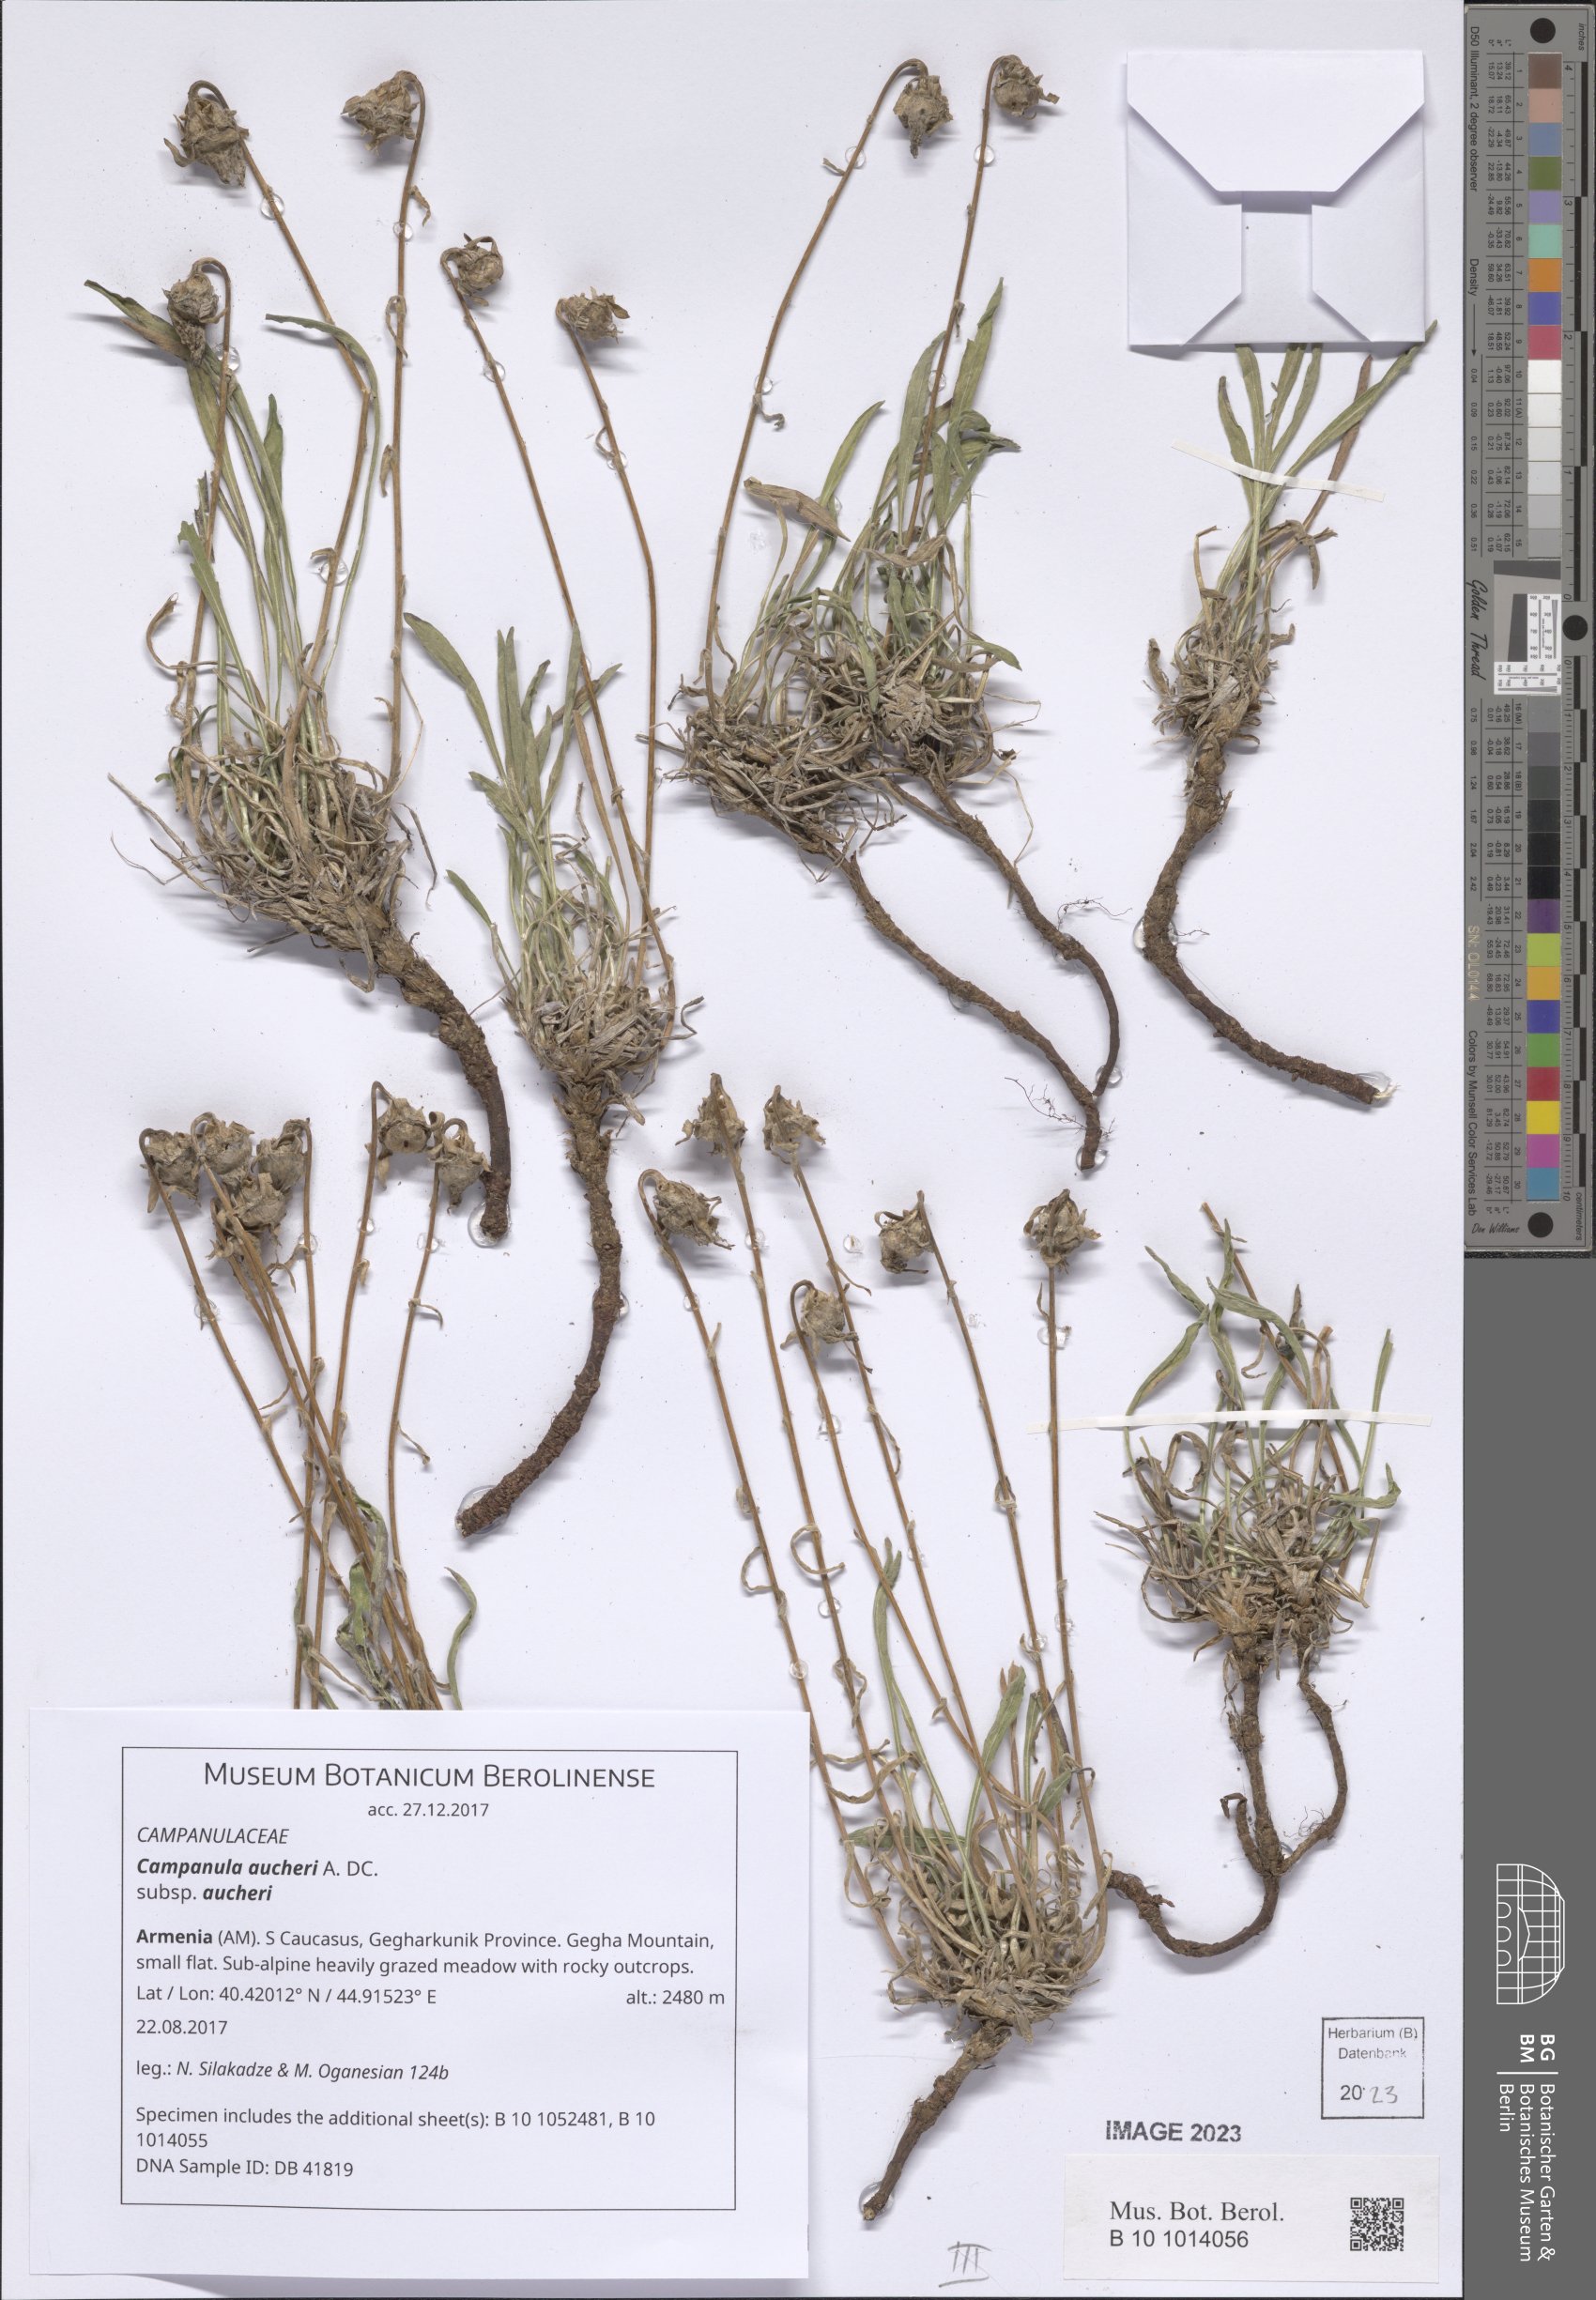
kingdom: Plantae
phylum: Tracheophyta
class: Magnoliopsida
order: Asterales
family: Campanulaceae
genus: Campanula
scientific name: Campanula saxifraga
